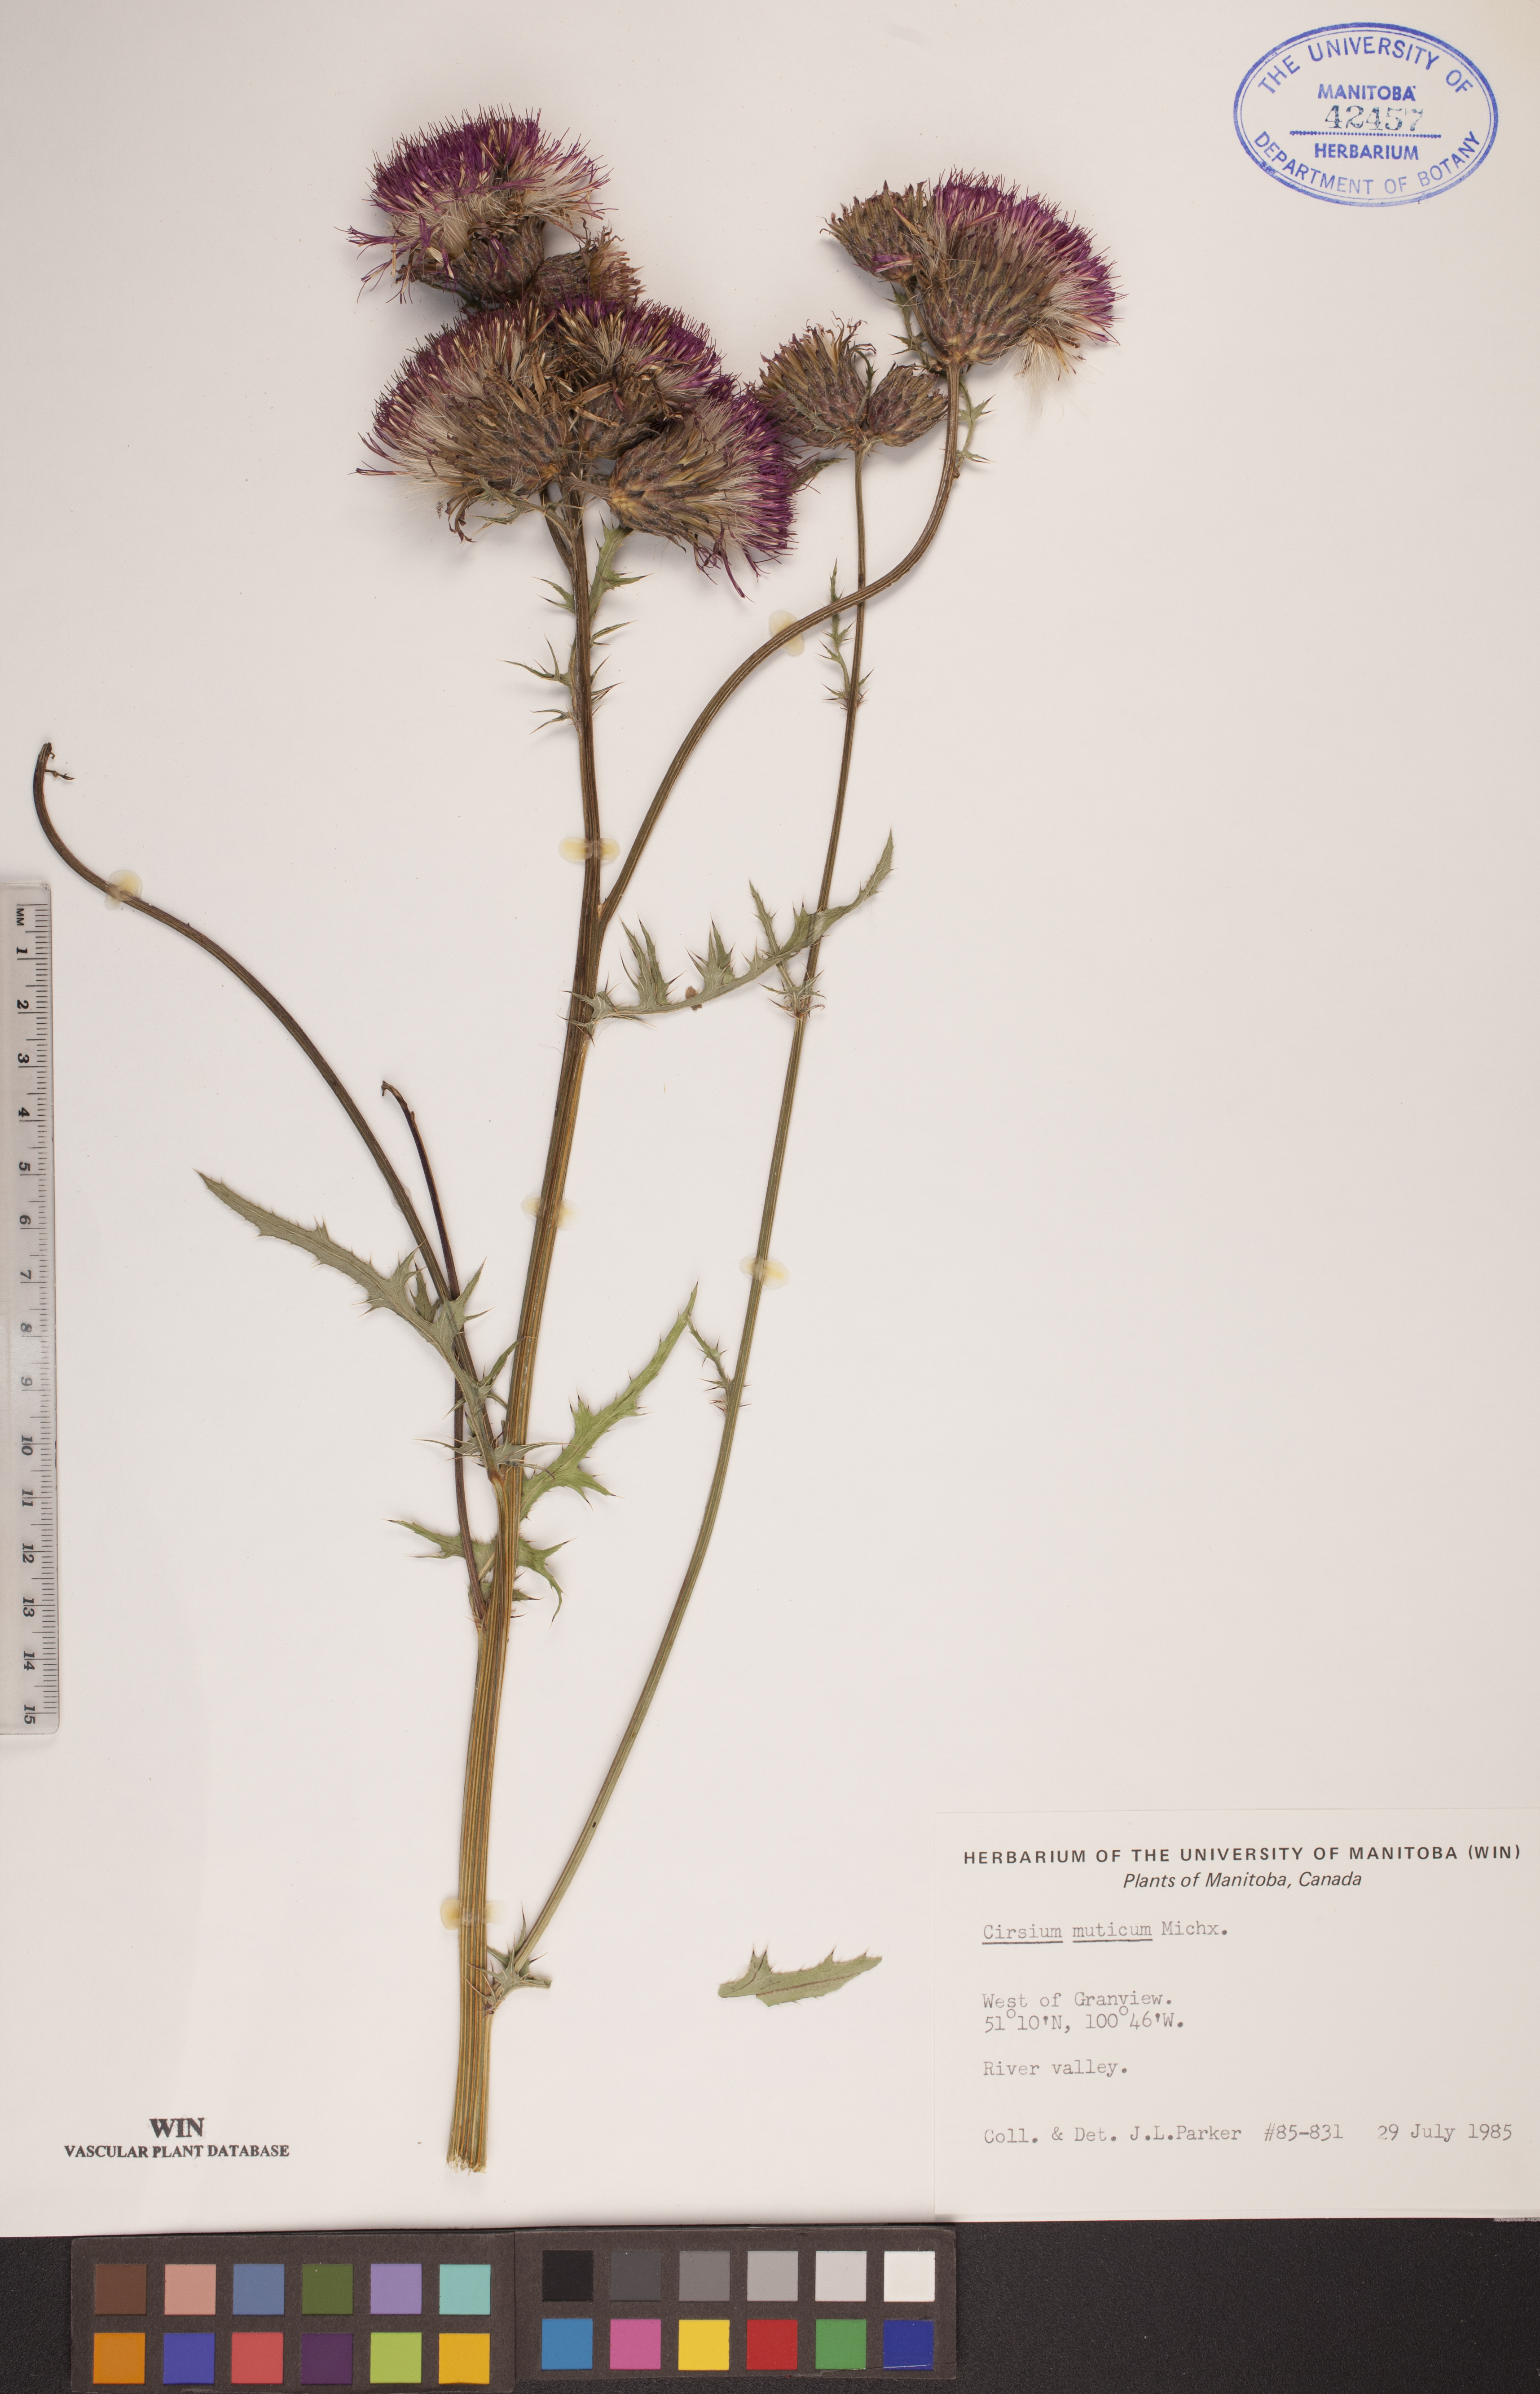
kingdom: Plantae
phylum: Tracheophyta
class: Magnoliopsida
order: Asterales
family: Asteraceae
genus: Cirsium
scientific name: Cirsium muticum
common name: Dunce-nettle
